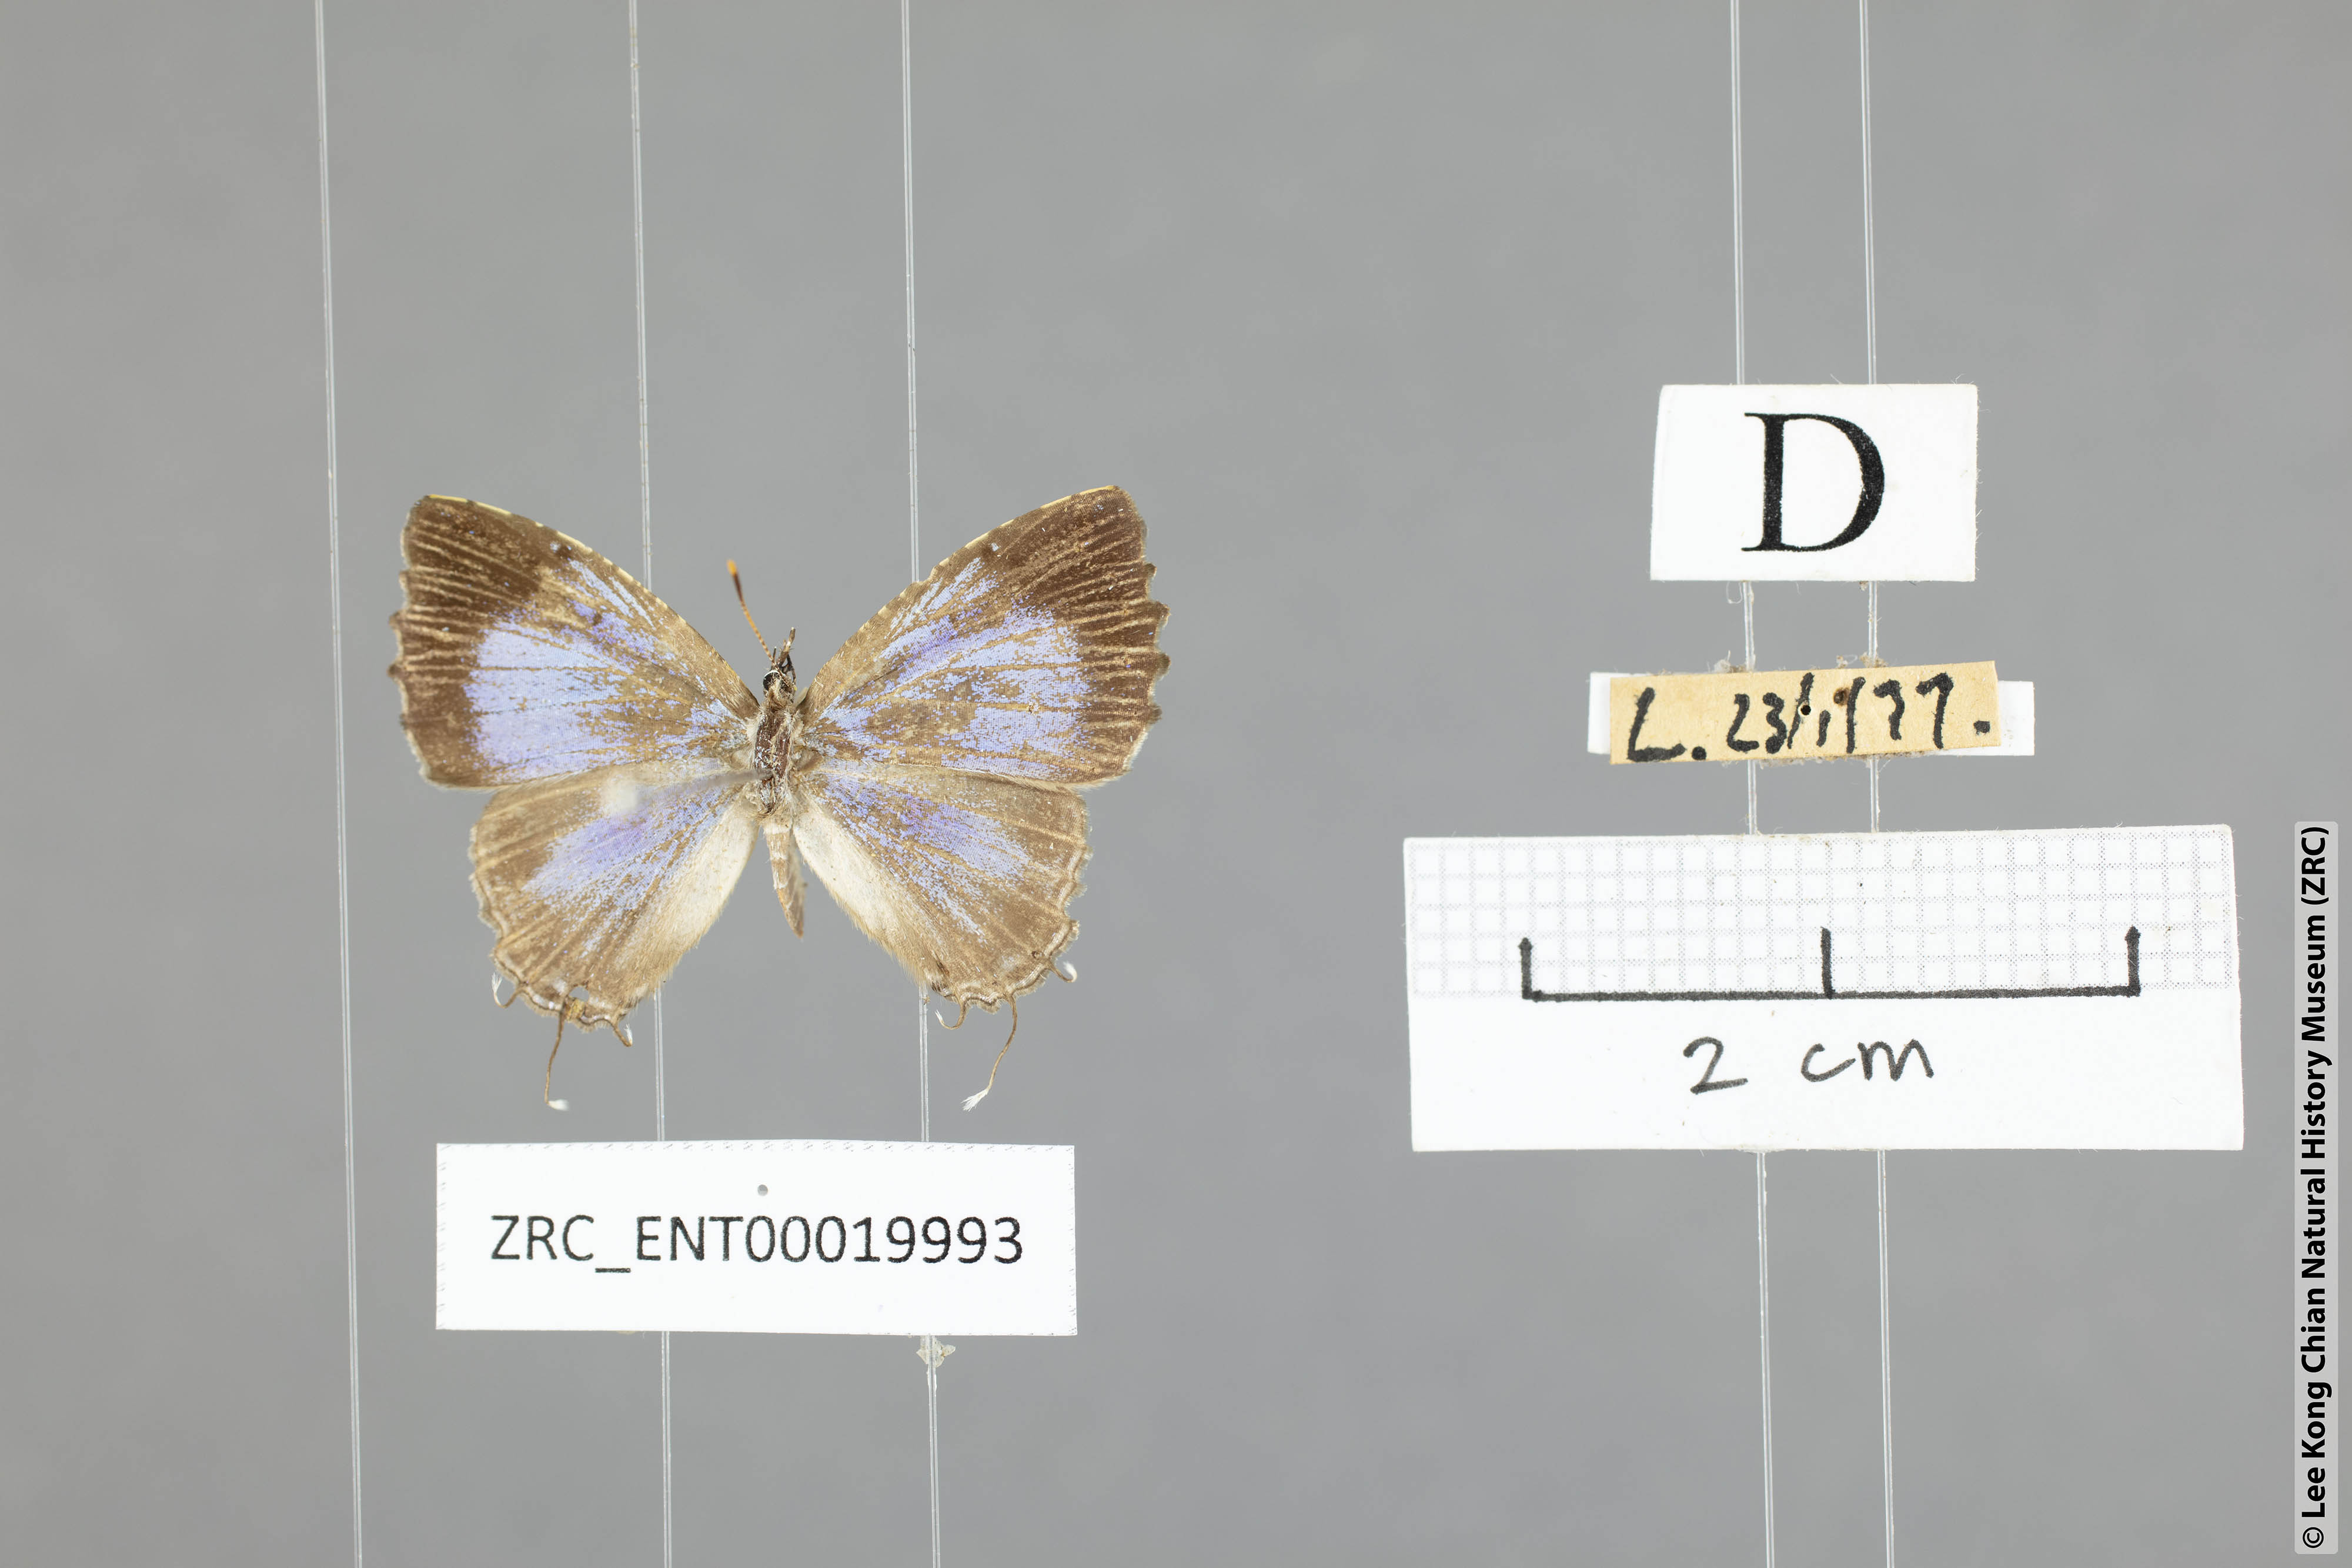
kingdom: Animalia
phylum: Arthropoda
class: Insecta
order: Lepidoptera
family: Lycaenidae
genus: Catapaecilma
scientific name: Catapaecilma elegans
